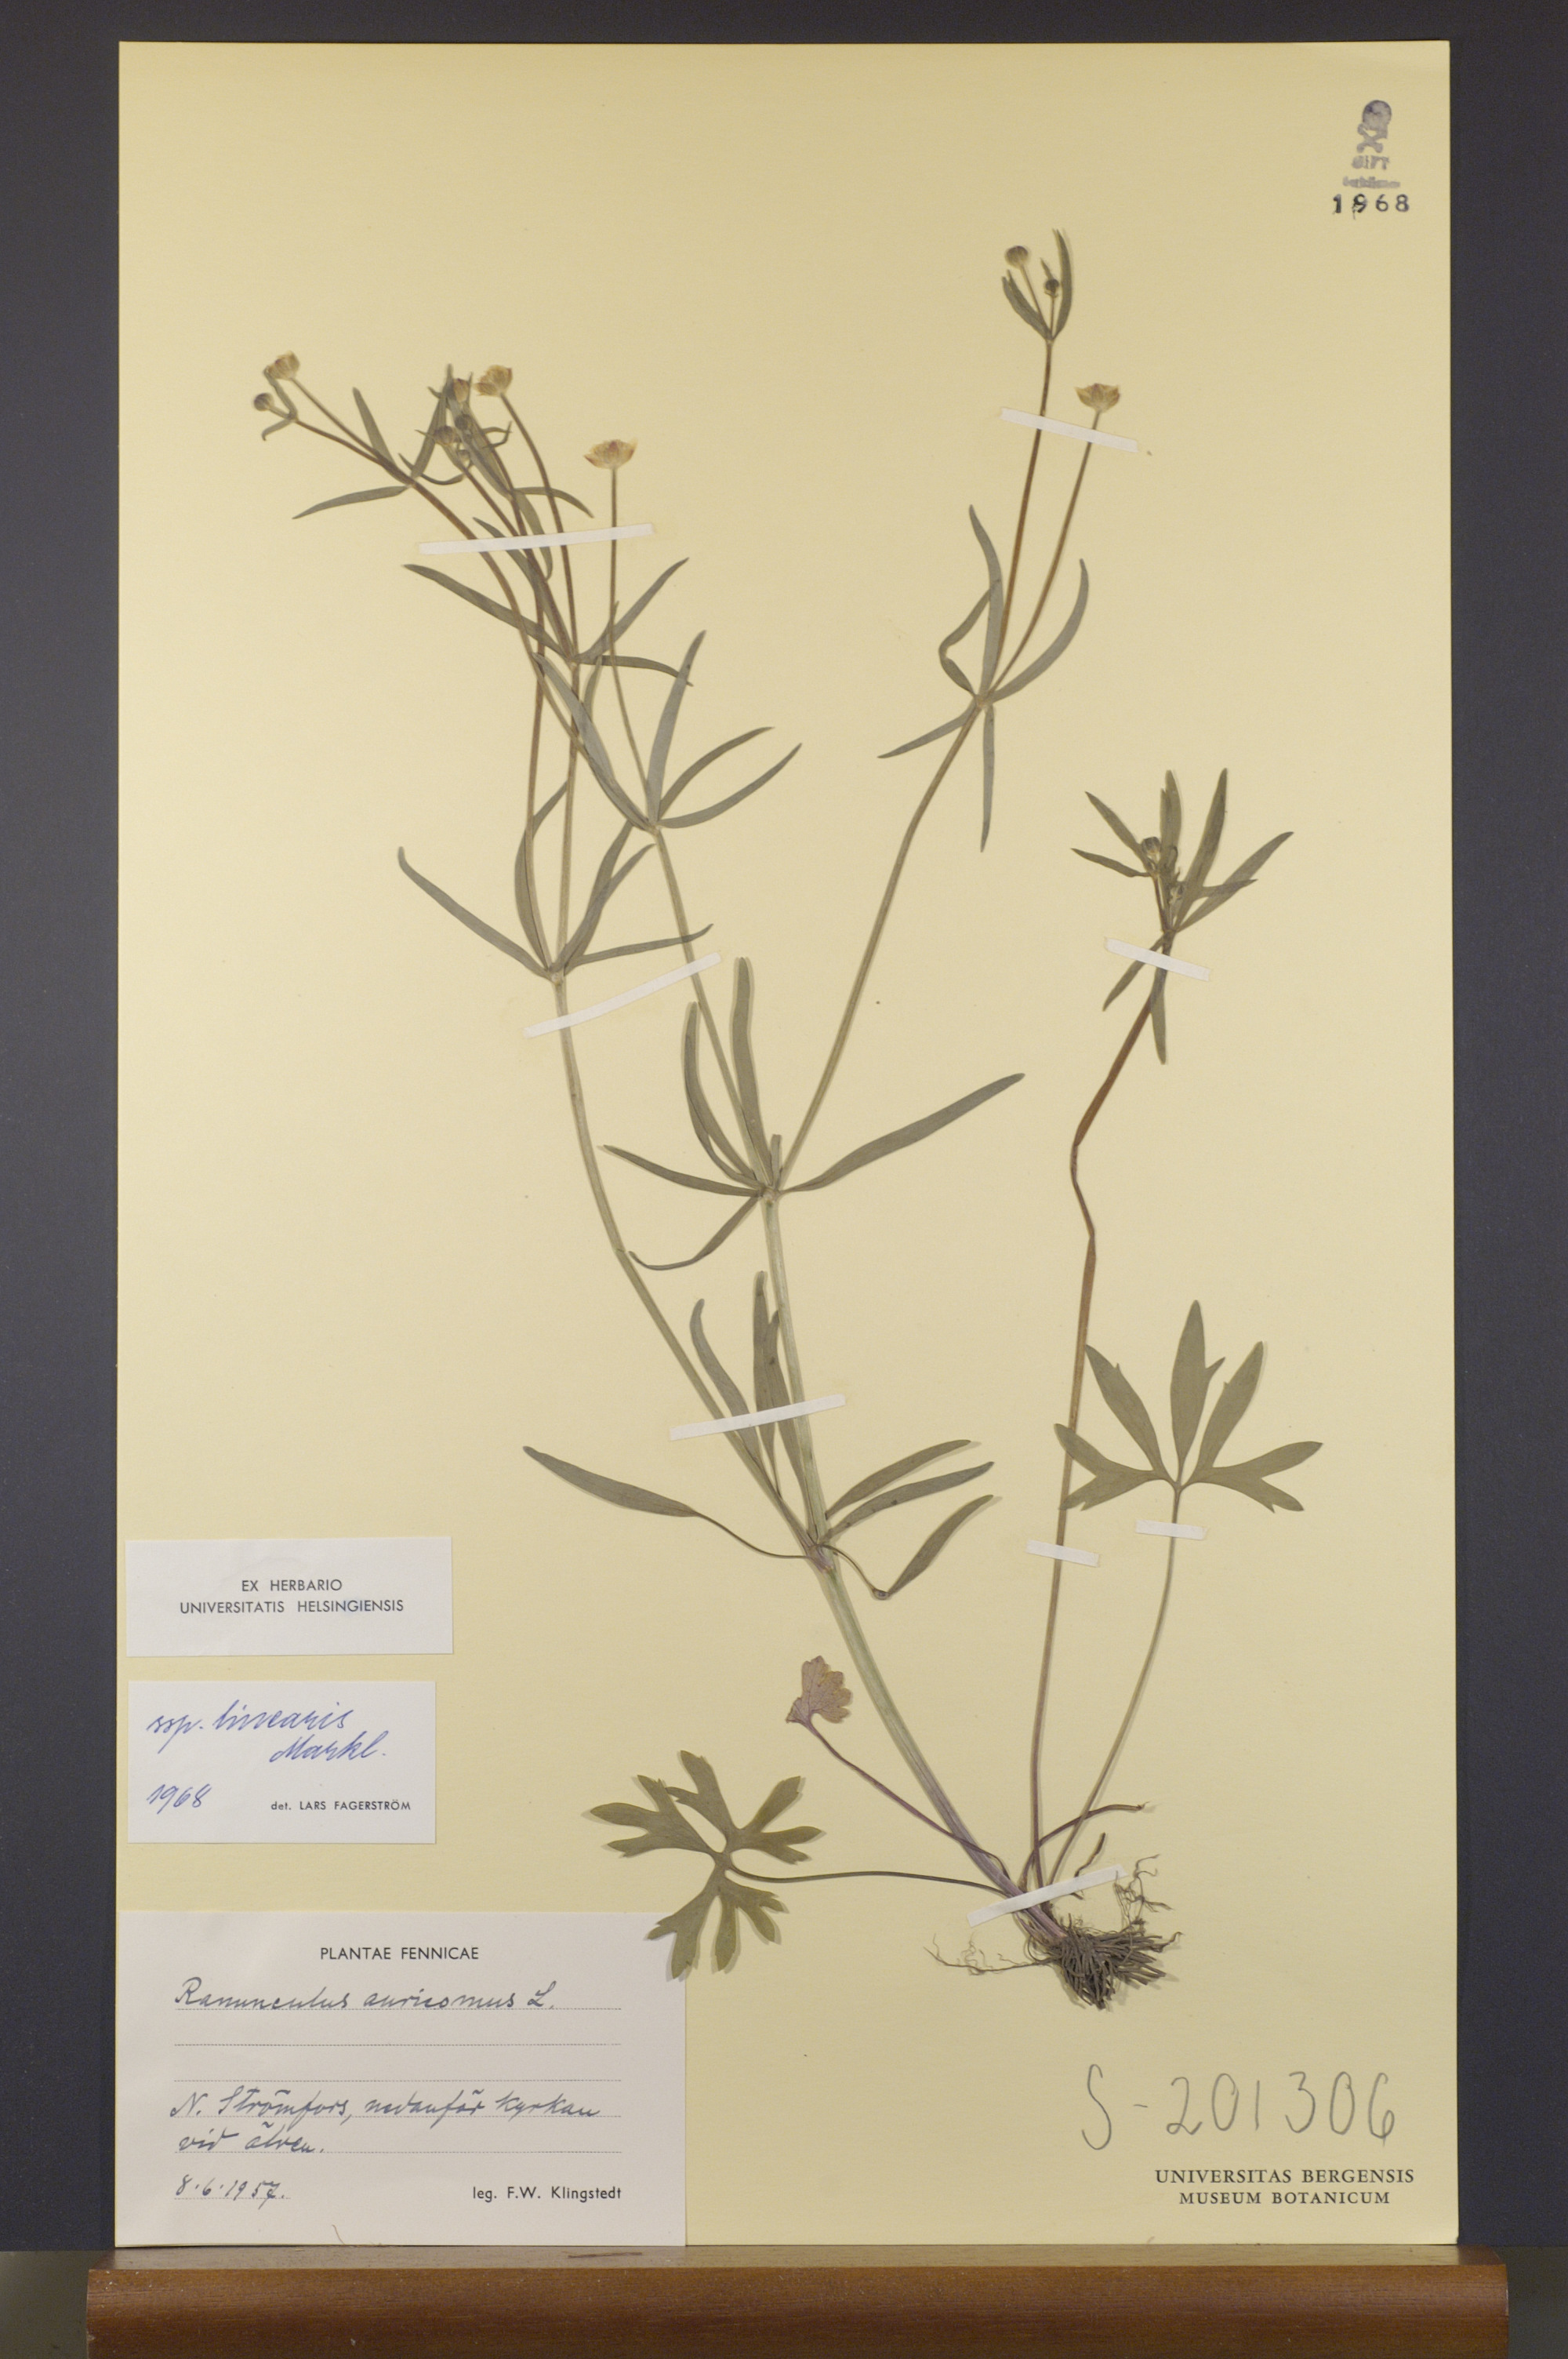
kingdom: Plantae
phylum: Tracheophyta
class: Magnoliopsida
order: Ranunculales
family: Ranunculaceae
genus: Ranunculus
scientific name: Ranunculus linearis
